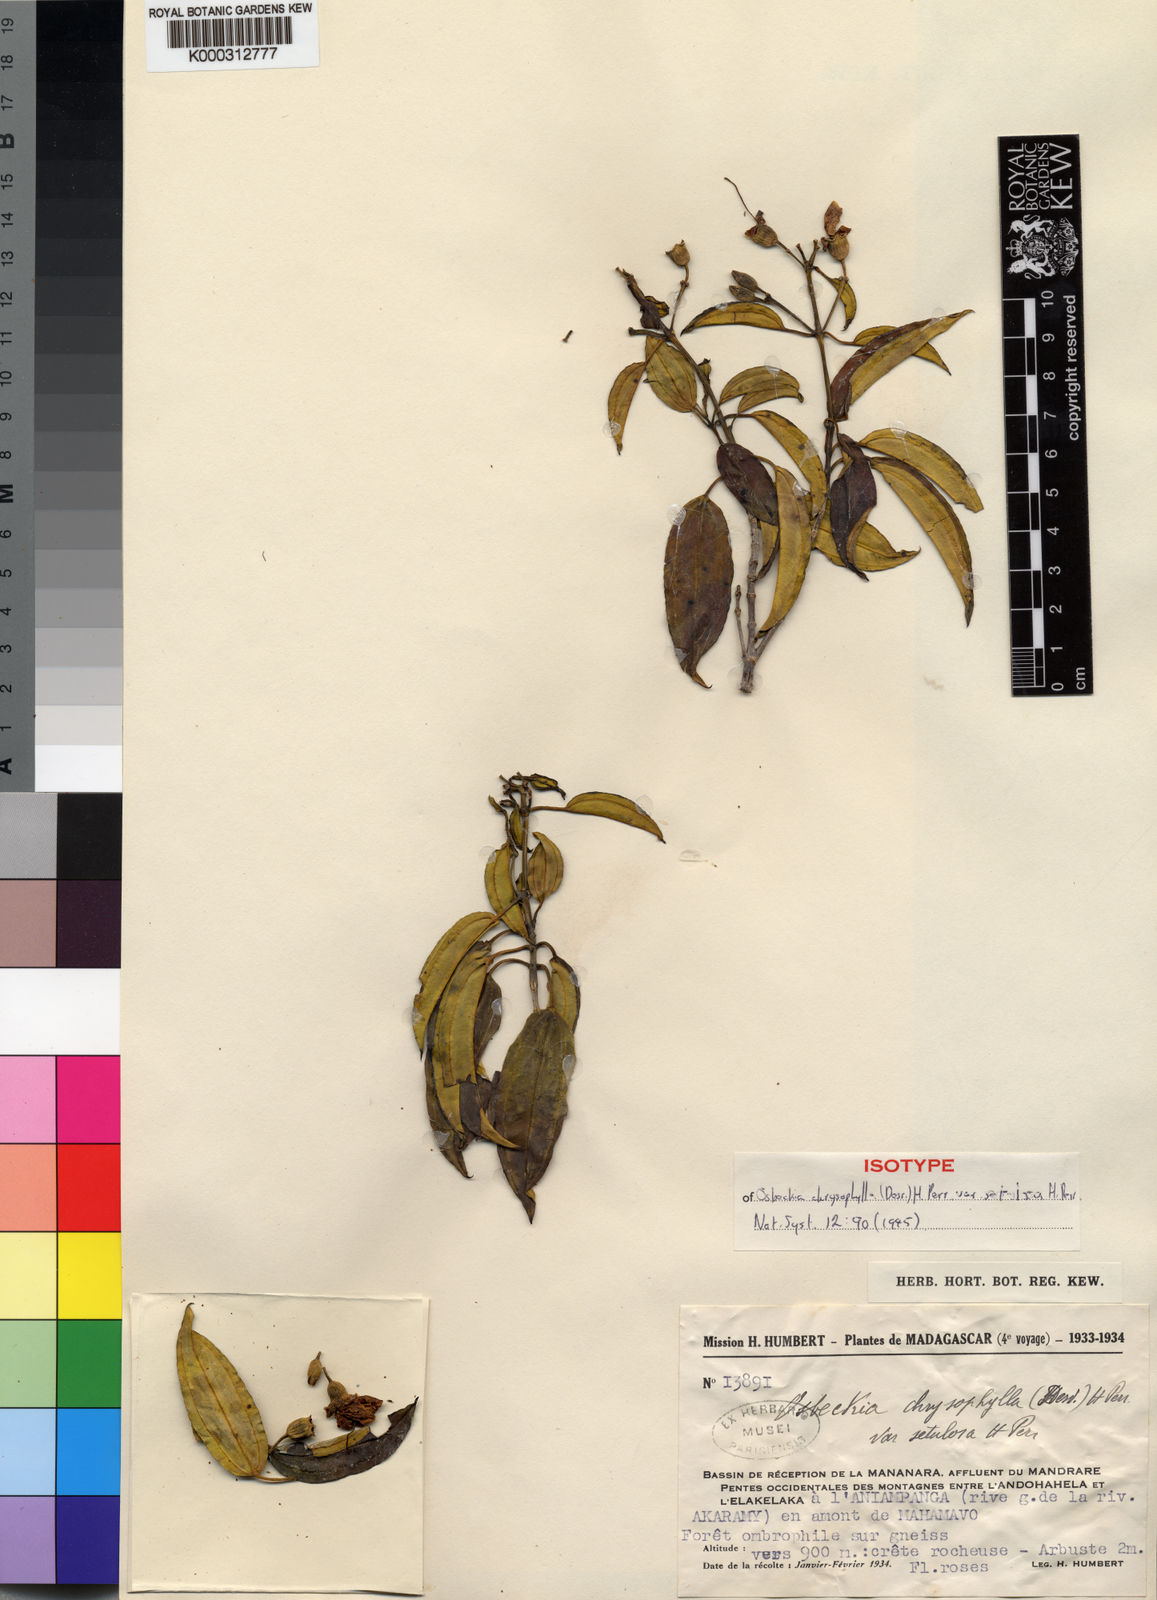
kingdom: Plantae
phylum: Tracheophyta
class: Magnoliopsida
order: Myrtales
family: Melastomataceae
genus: Rousseauxia
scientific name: Rousseauxia chrysophylla
